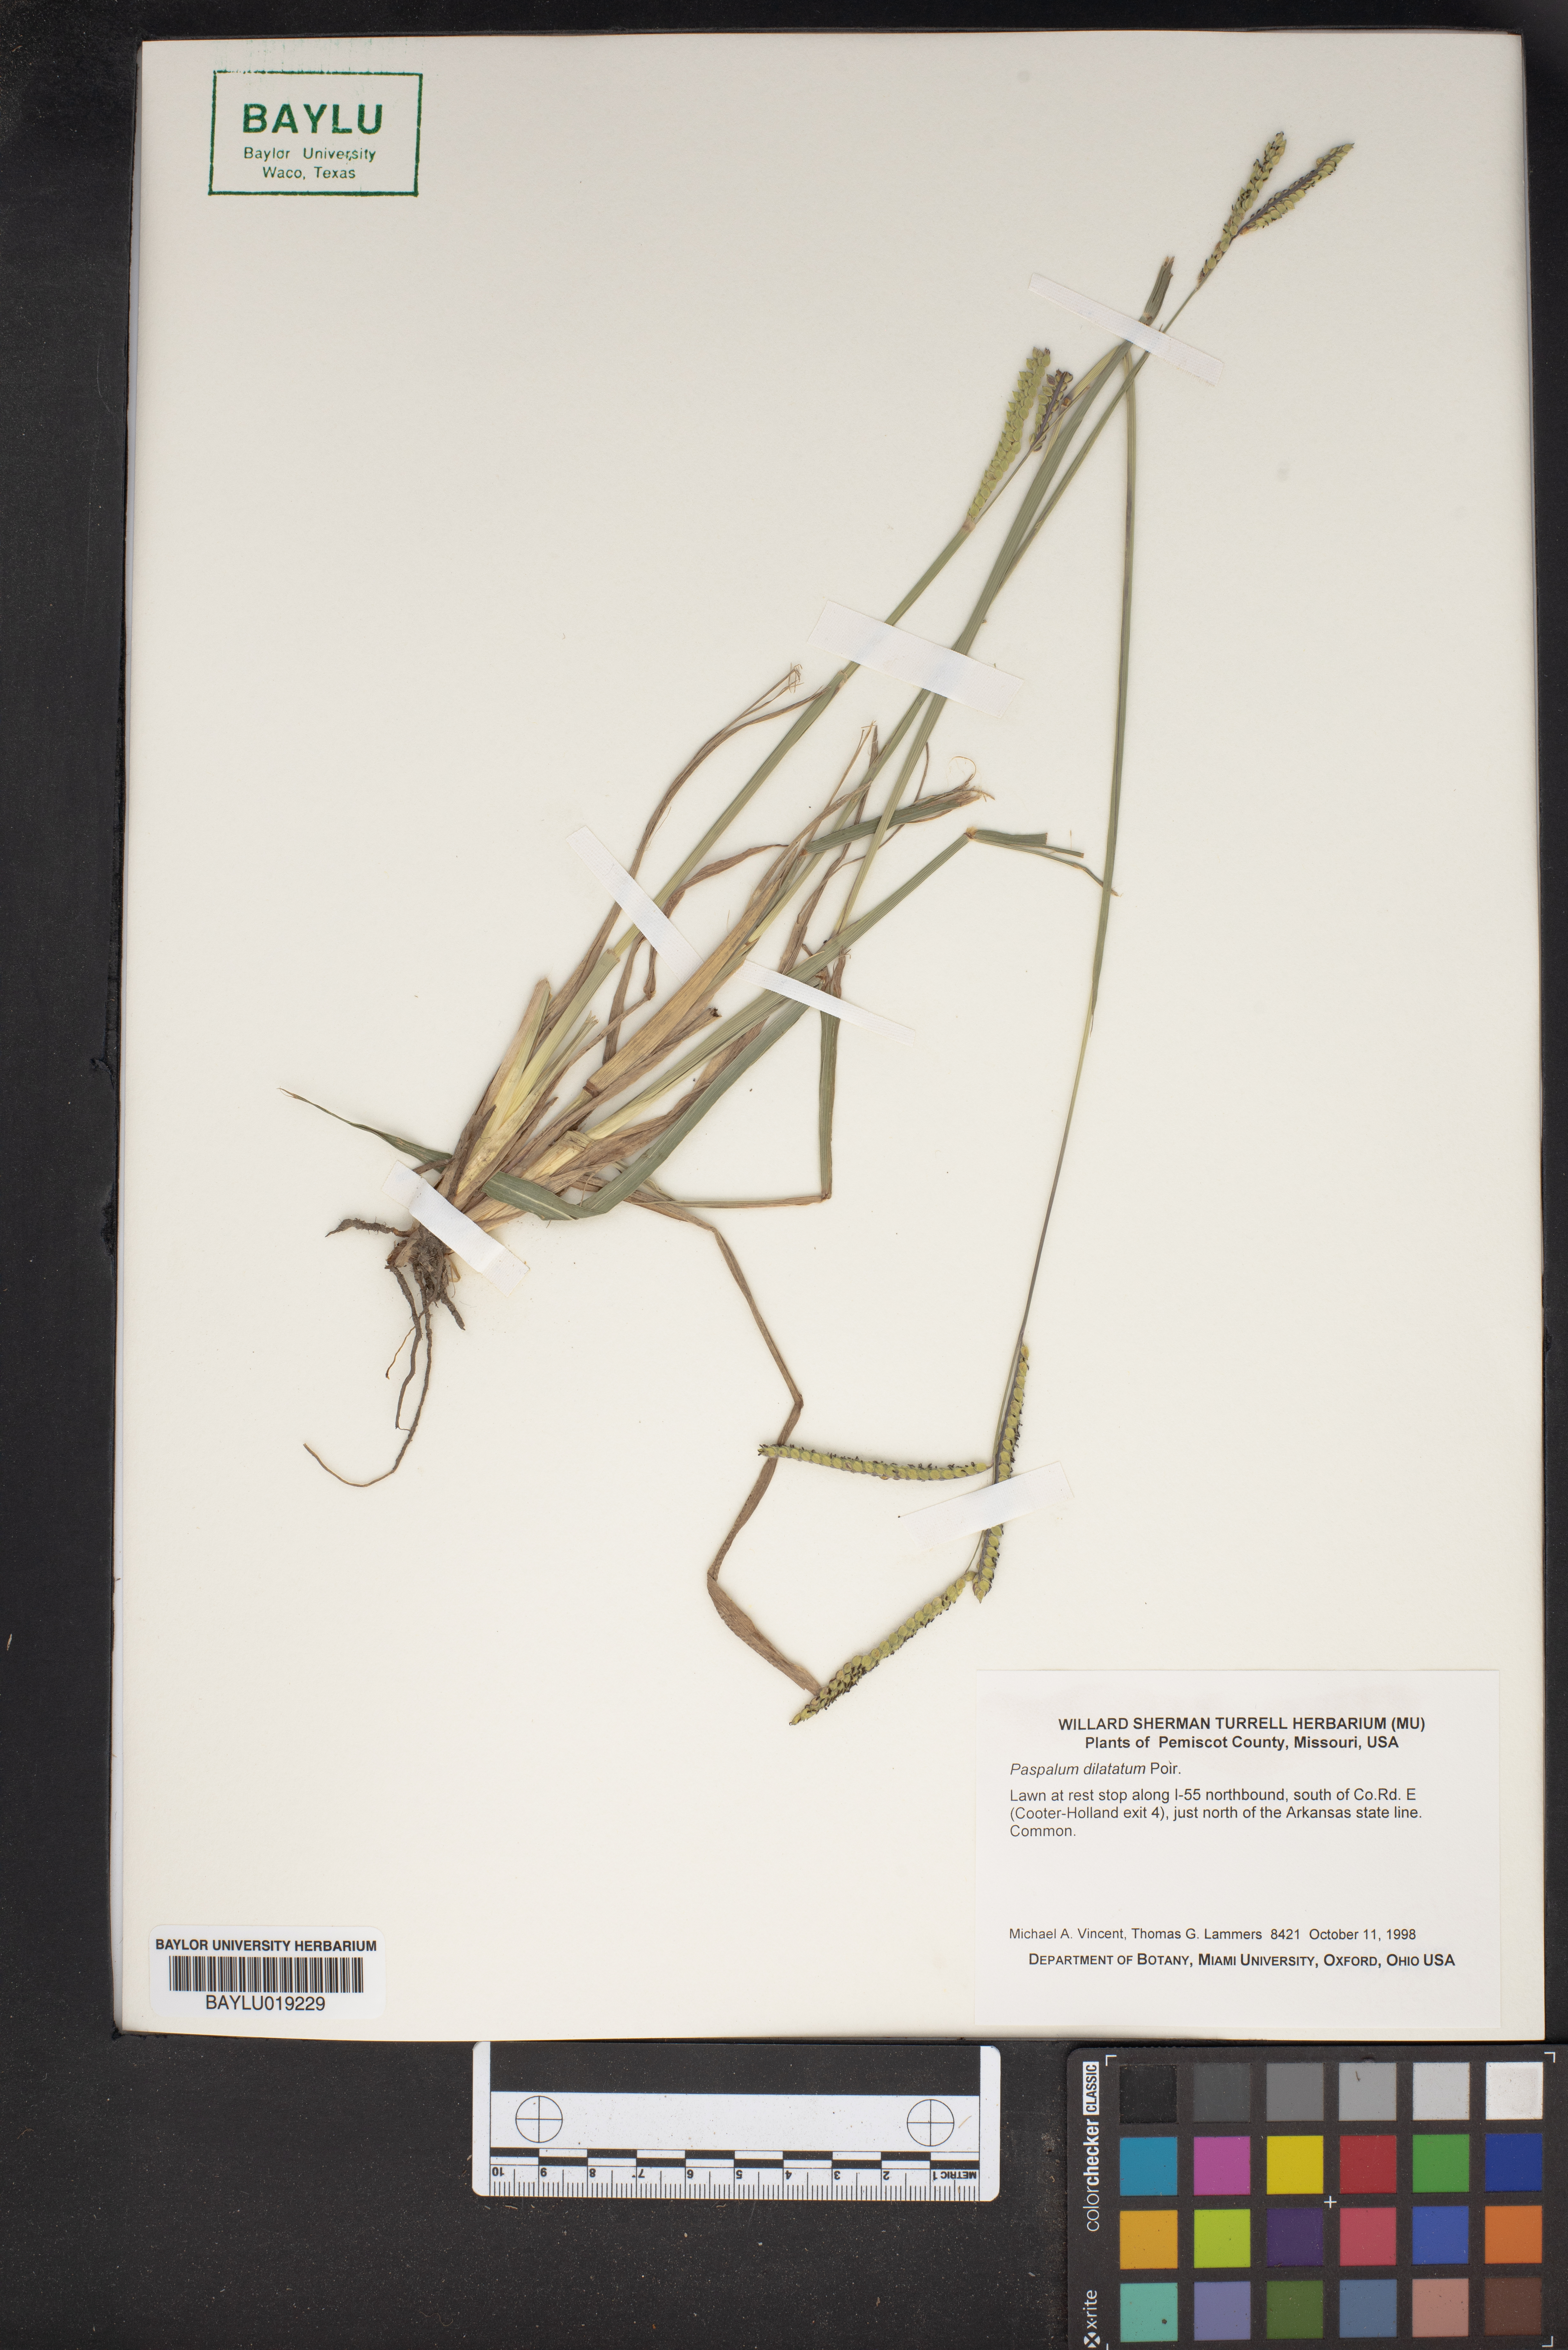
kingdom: Plantae
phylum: Tracheophyta
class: Liliopsida
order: Poales
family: Poaceae
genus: Paspalum
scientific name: Paspalum dilatatum
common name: Dallisgrass
